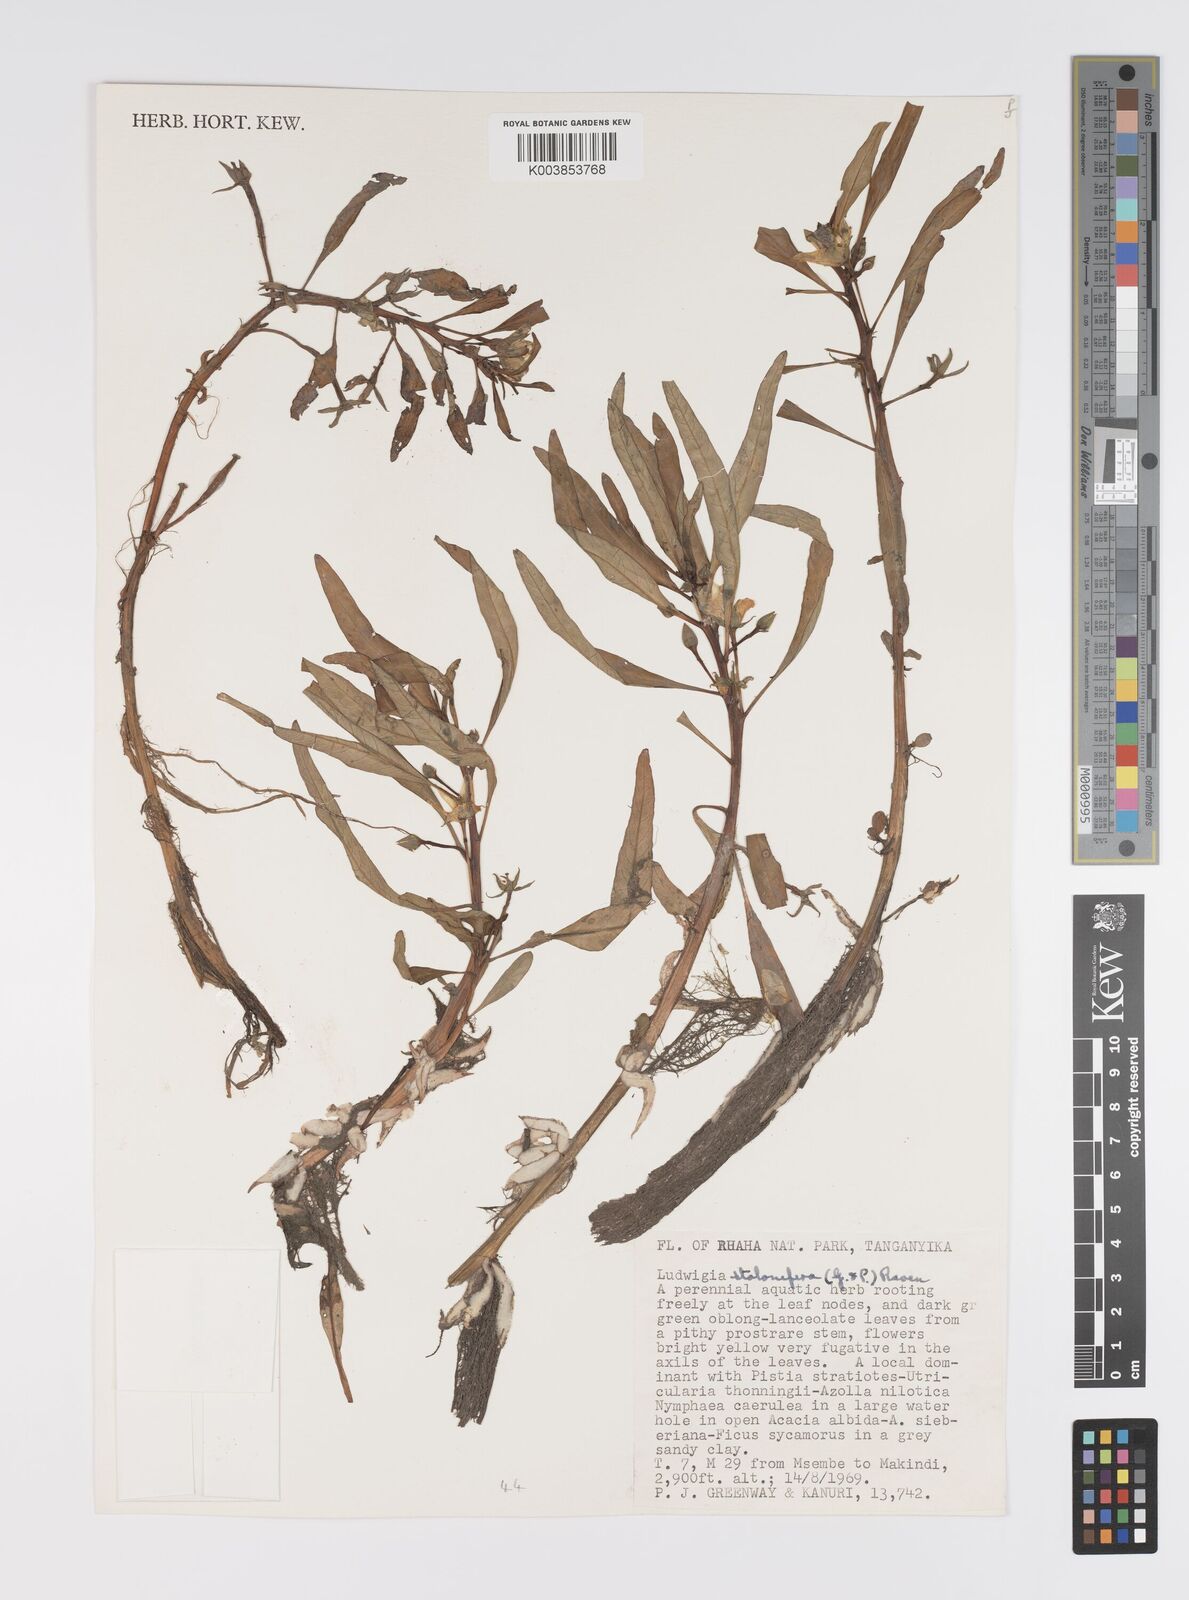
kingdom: Plantae
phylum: Tracheophyta
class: Magnoliopsida
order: Myrtales
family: Onagraceae
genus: Ludwigia
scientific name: Ludwigia repens
